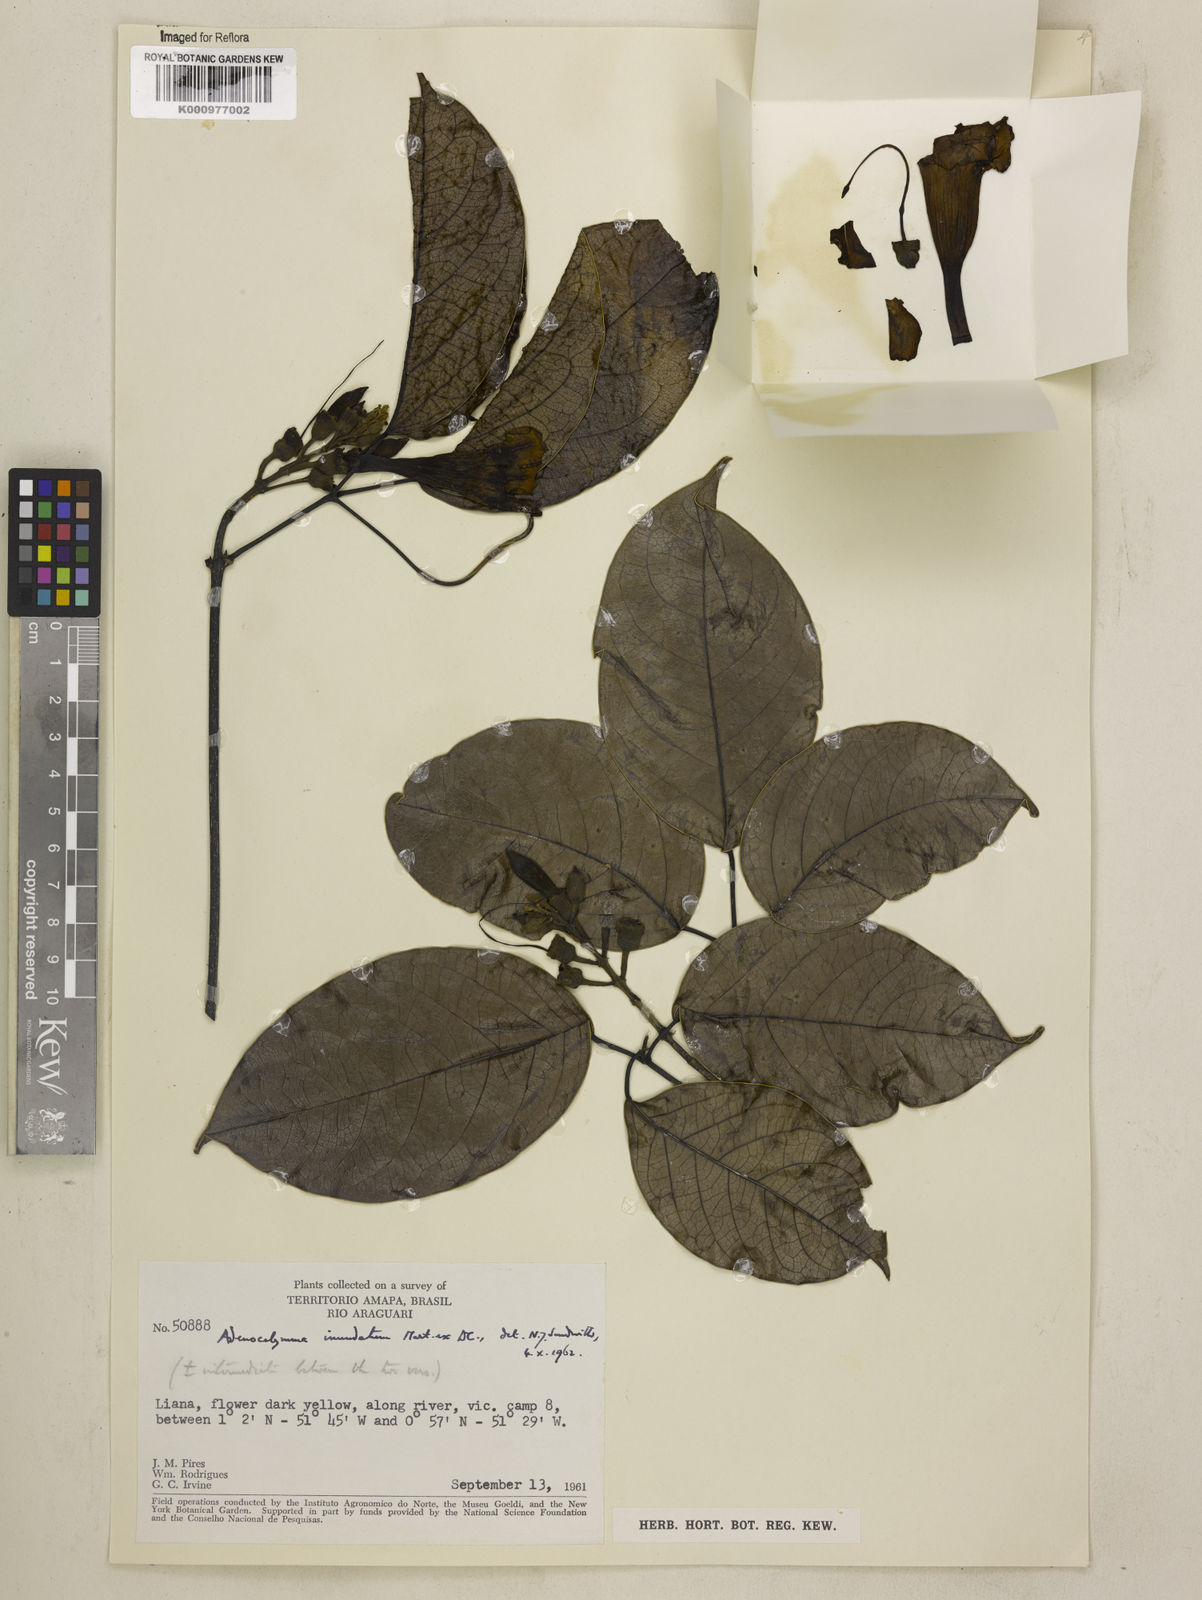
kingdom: Plantae
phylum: Tracheophyta
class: Magnoliopsida
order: Lamiales
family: Bignoniaceae
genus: Adenocalymma
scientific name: Adenocalymma inundatum
